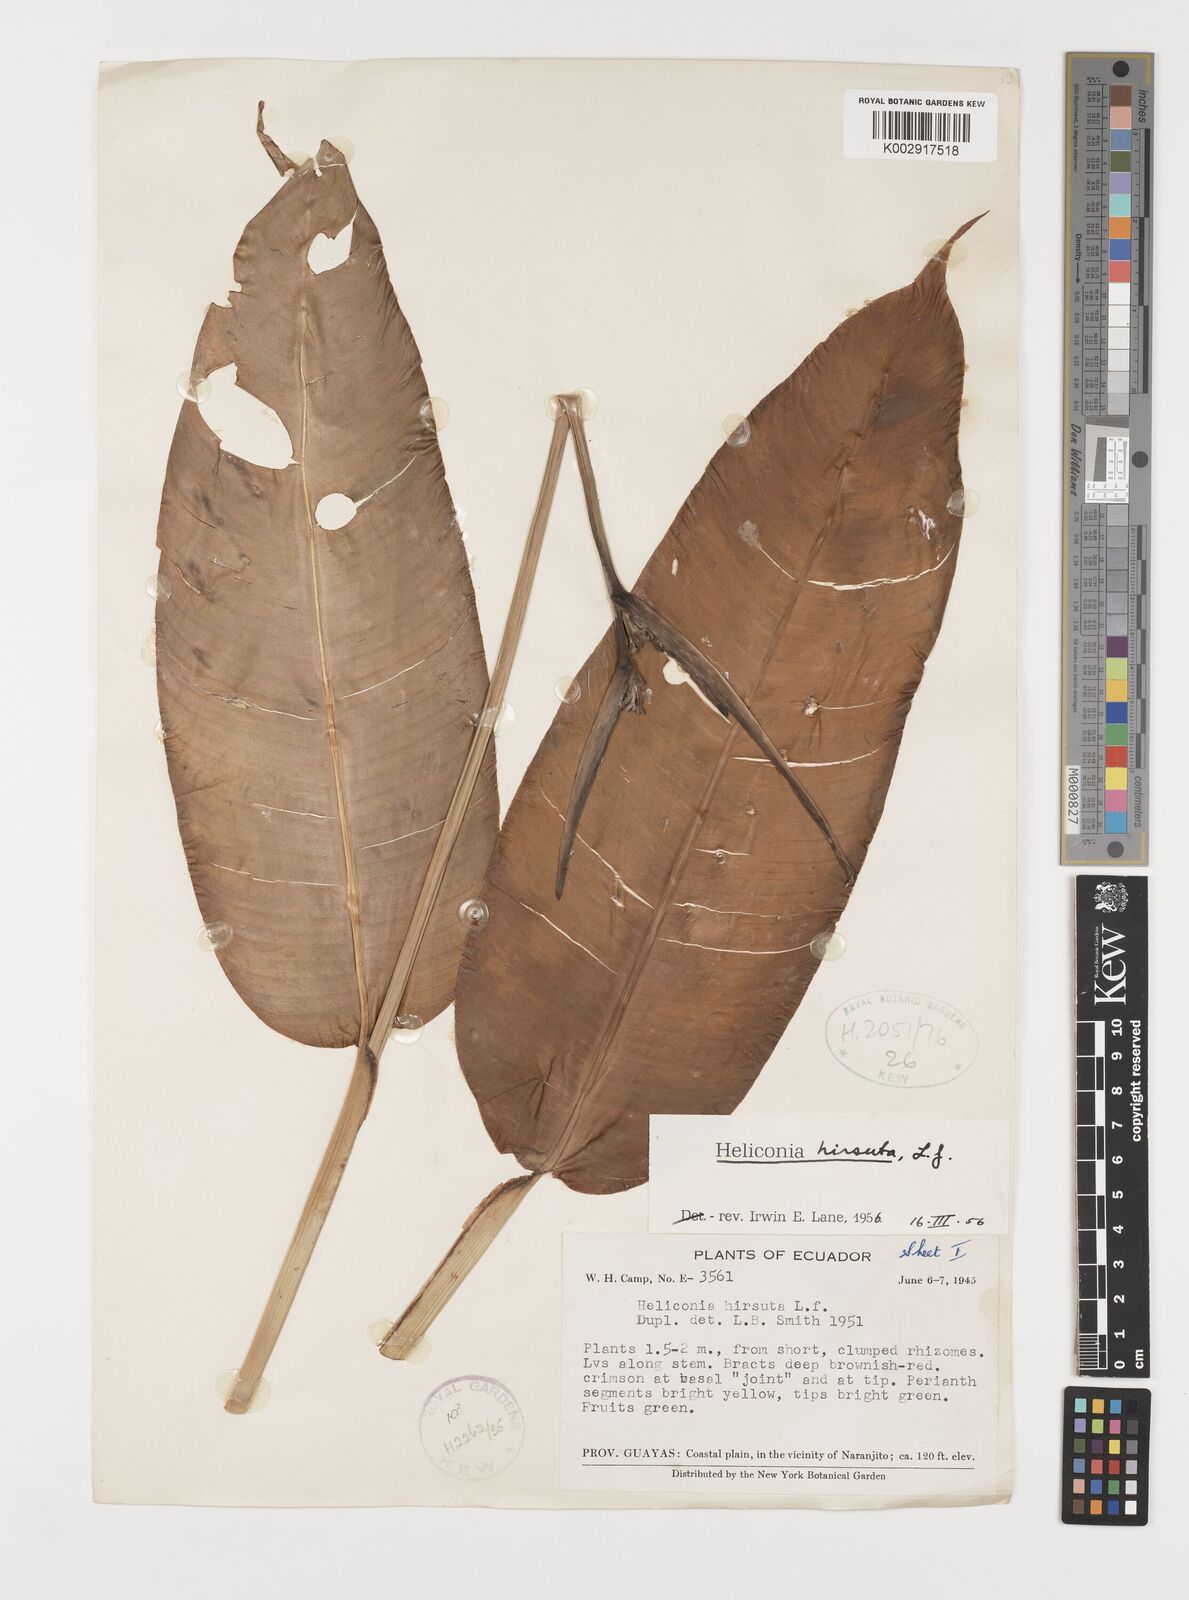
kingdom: Plantae
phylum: Tracheophyta
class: Liliopsida
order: Zingiberales
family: Heliconiaceae
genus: Heliconia
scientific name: Heliconia hirsuta
